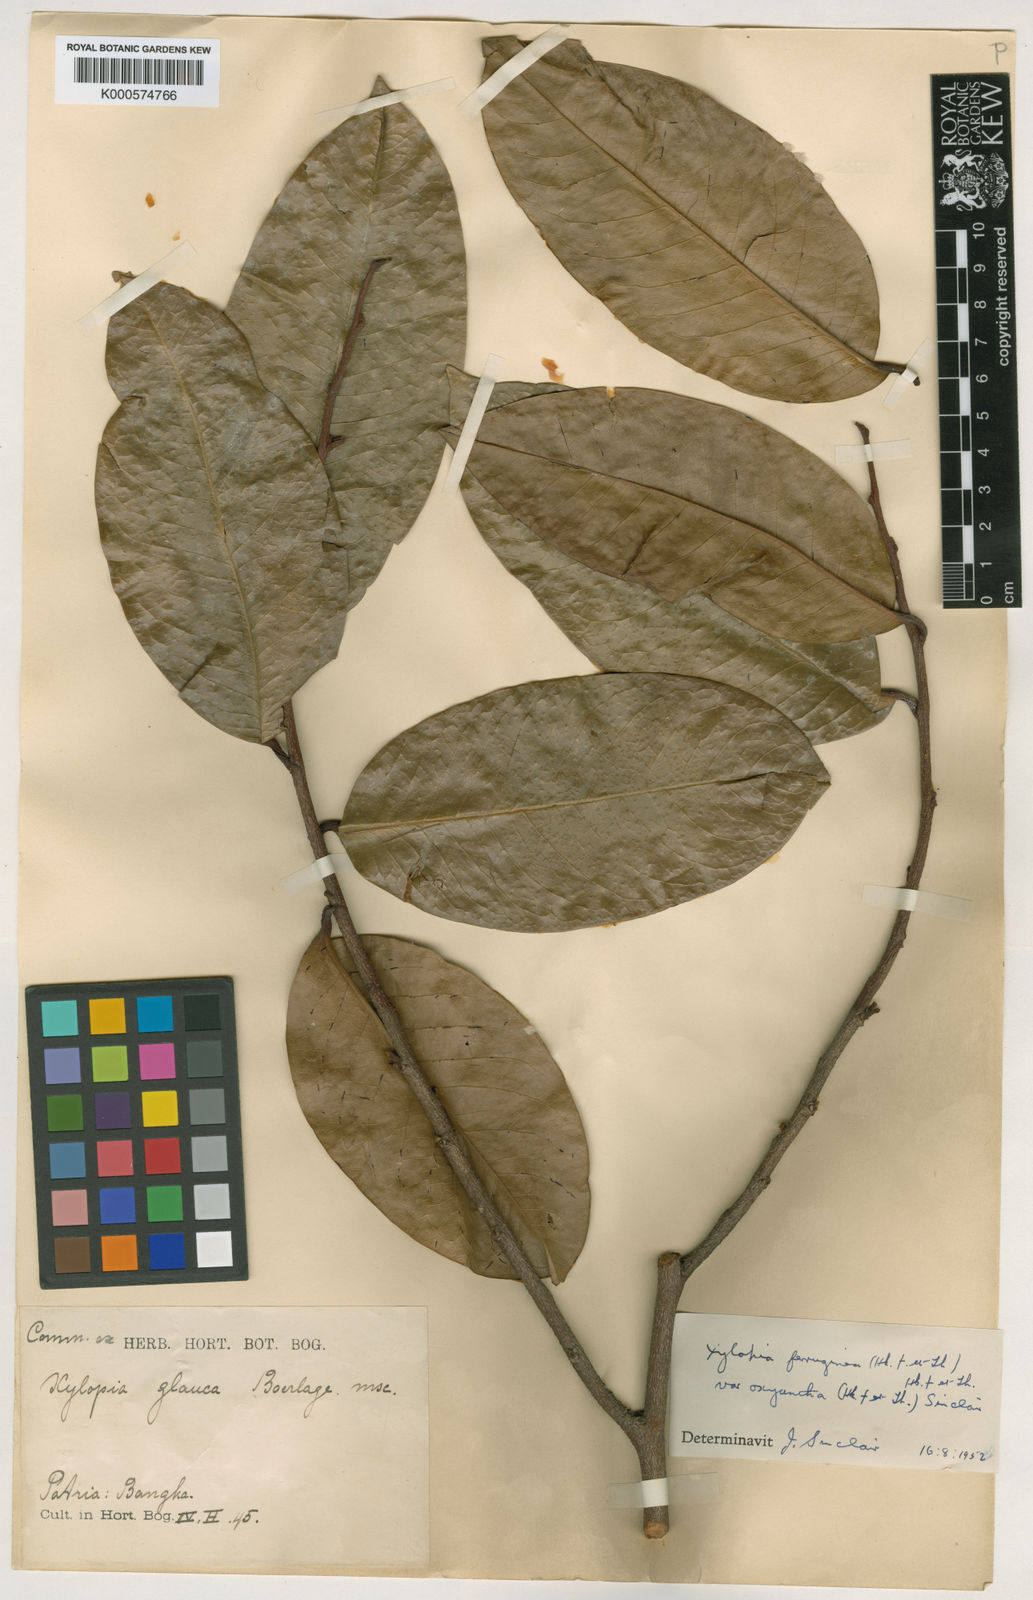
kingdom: Plantae
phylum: Tracheophyta
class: Magnoliopsida
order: Magnoliales
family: Annonaceae
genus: Xylopia
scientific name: Xylopia glauca
